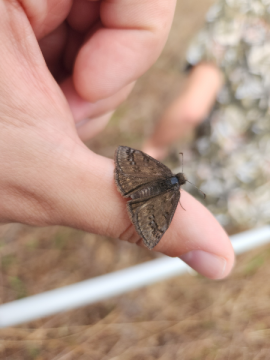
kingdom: Animalia
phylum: Arthropoda
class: Insecta
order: Lepidoptera
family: Hesperiidae
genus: Erynnis
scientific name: Erynnis brizo
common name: Sleepy Duskywing
